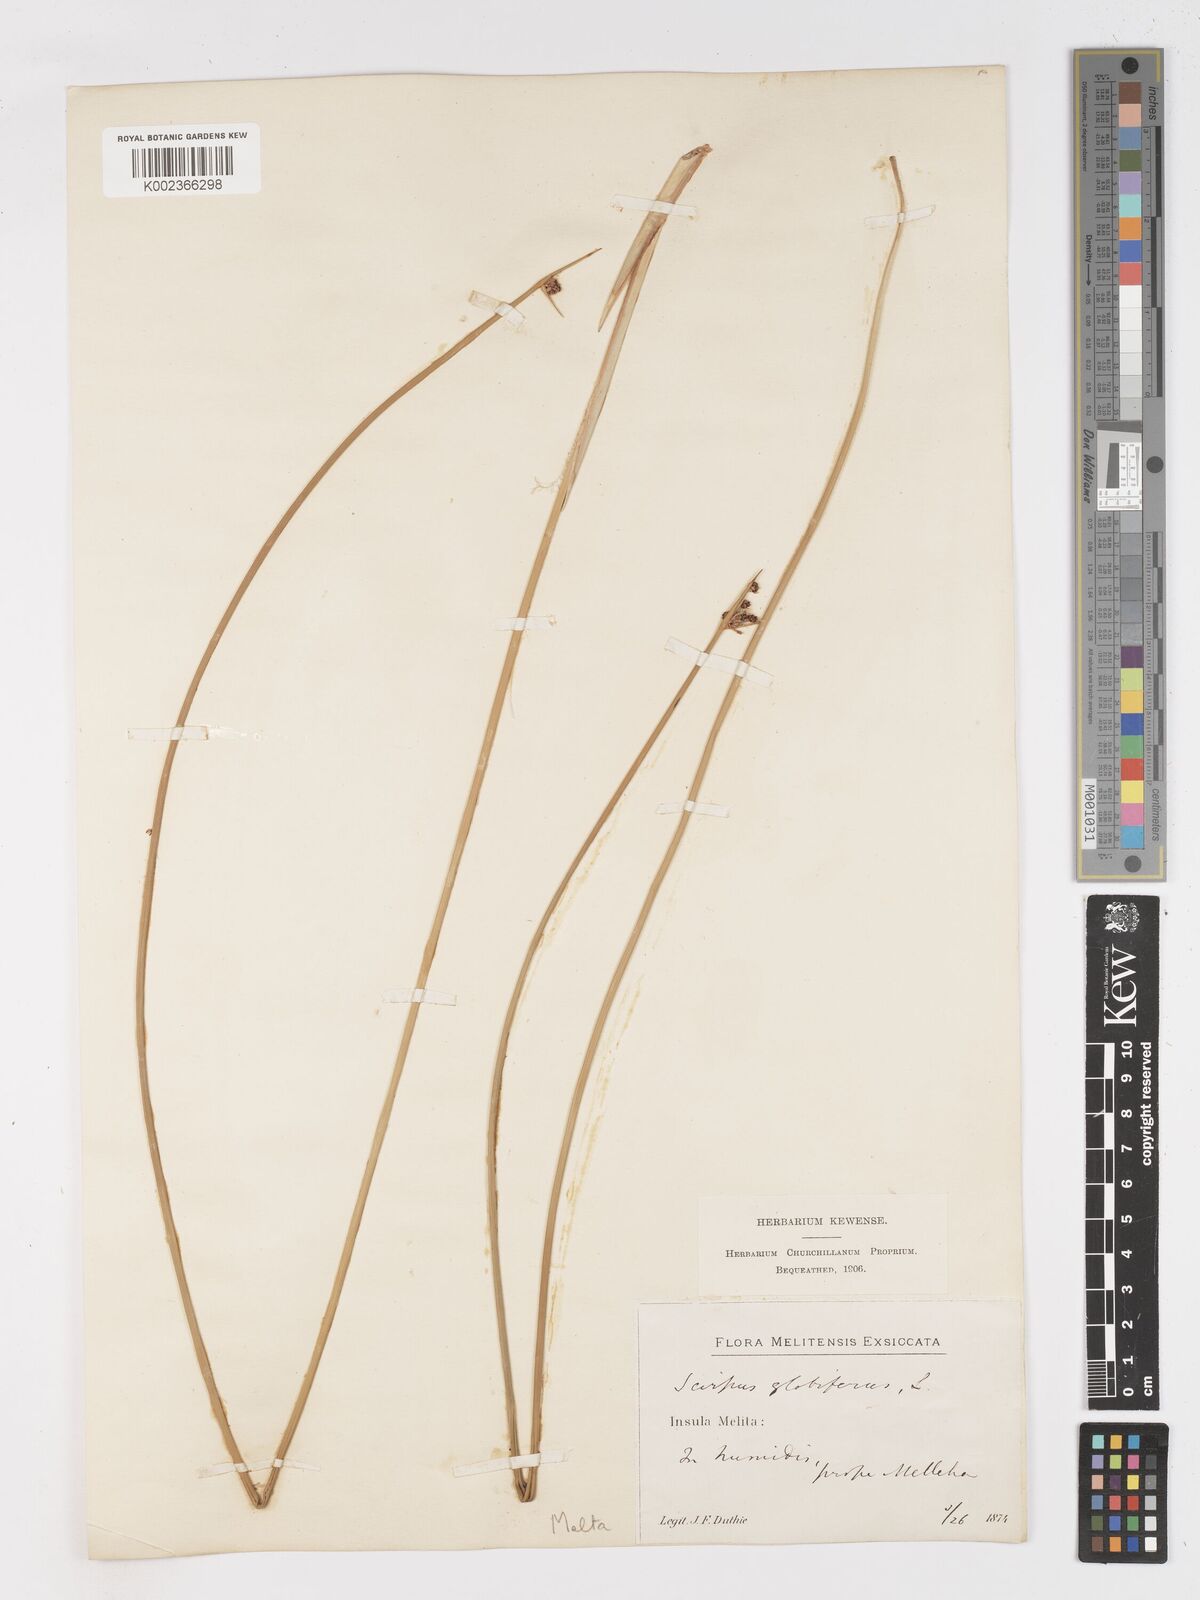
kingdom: Plantae
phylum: Tracheophyta
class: Liliopsida
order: Poales
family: Cyperaceae
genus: Scirpoides
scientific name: Scirpoides holoschoenus
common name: Round-headed club-rush
